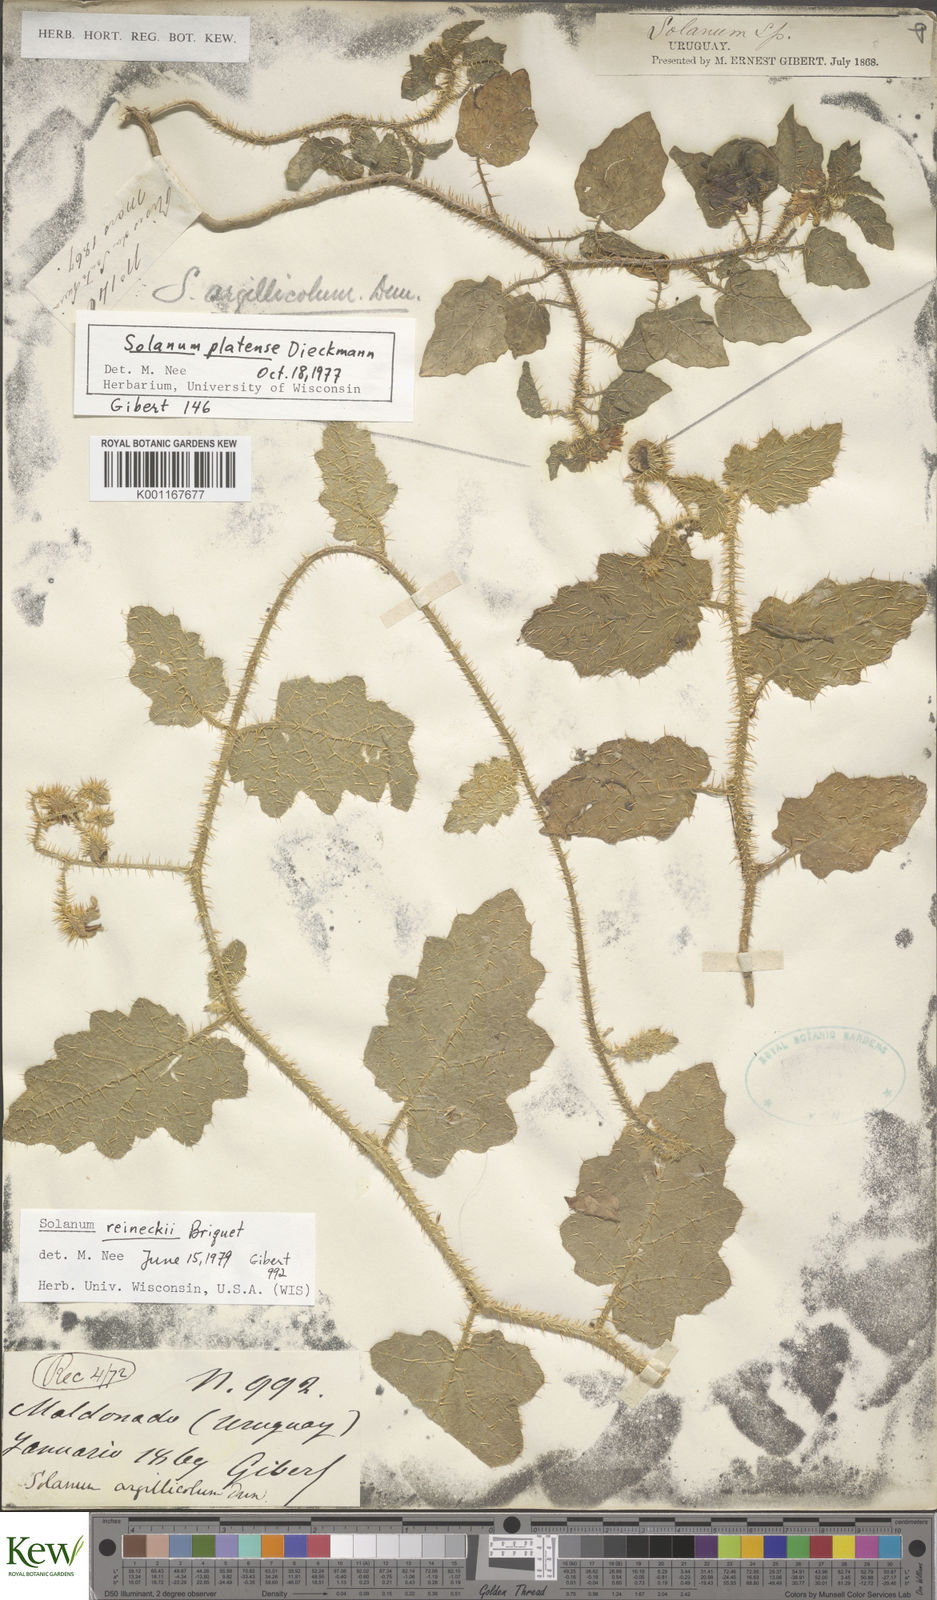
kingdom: Plantae
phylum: Tracheophyta
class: Magnoliopsida
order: Solanales
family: Solanaceae
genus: Solanum
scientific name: Solanum platense
